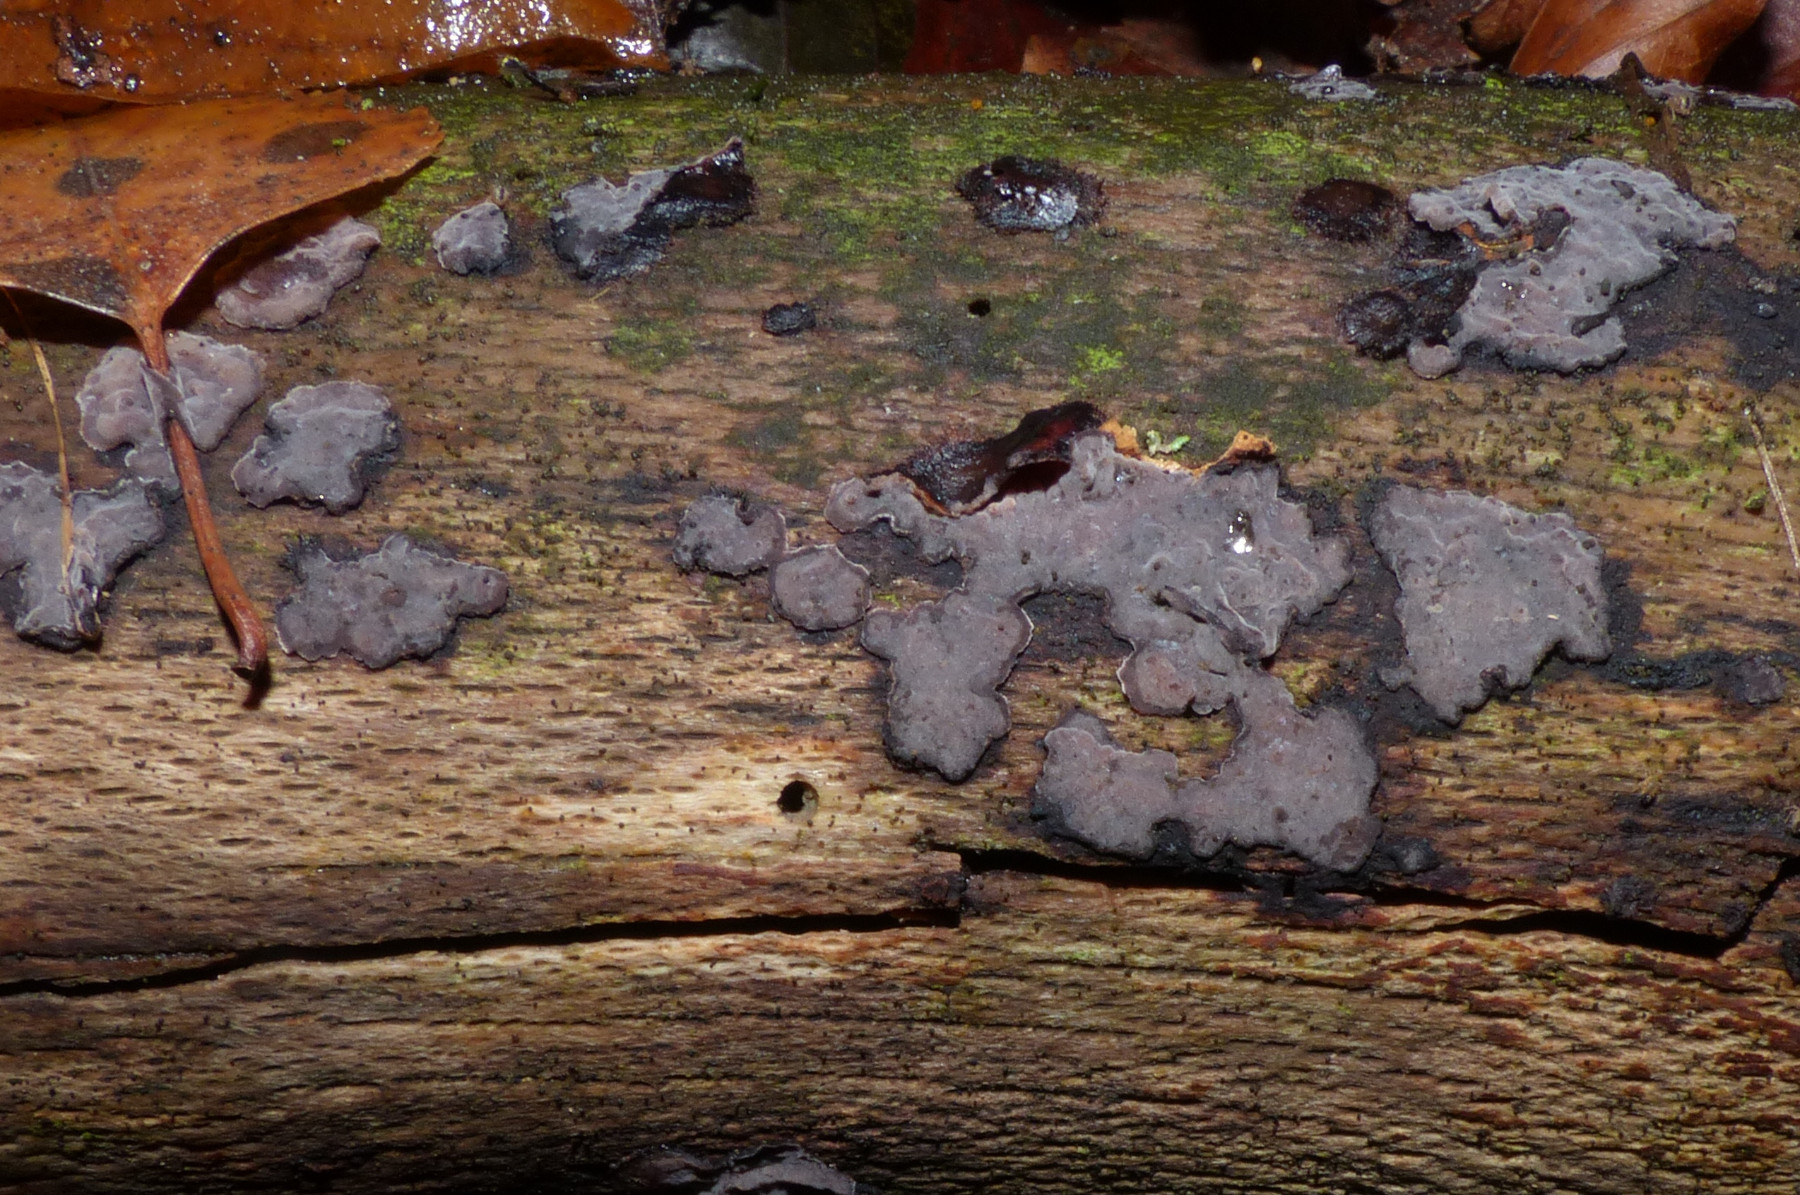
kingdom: Fungi
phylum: Basidiomycota
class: Agaricomycetes
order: Russulales
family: Peniophoraceae
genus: Peniophora
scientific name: Peniophora
